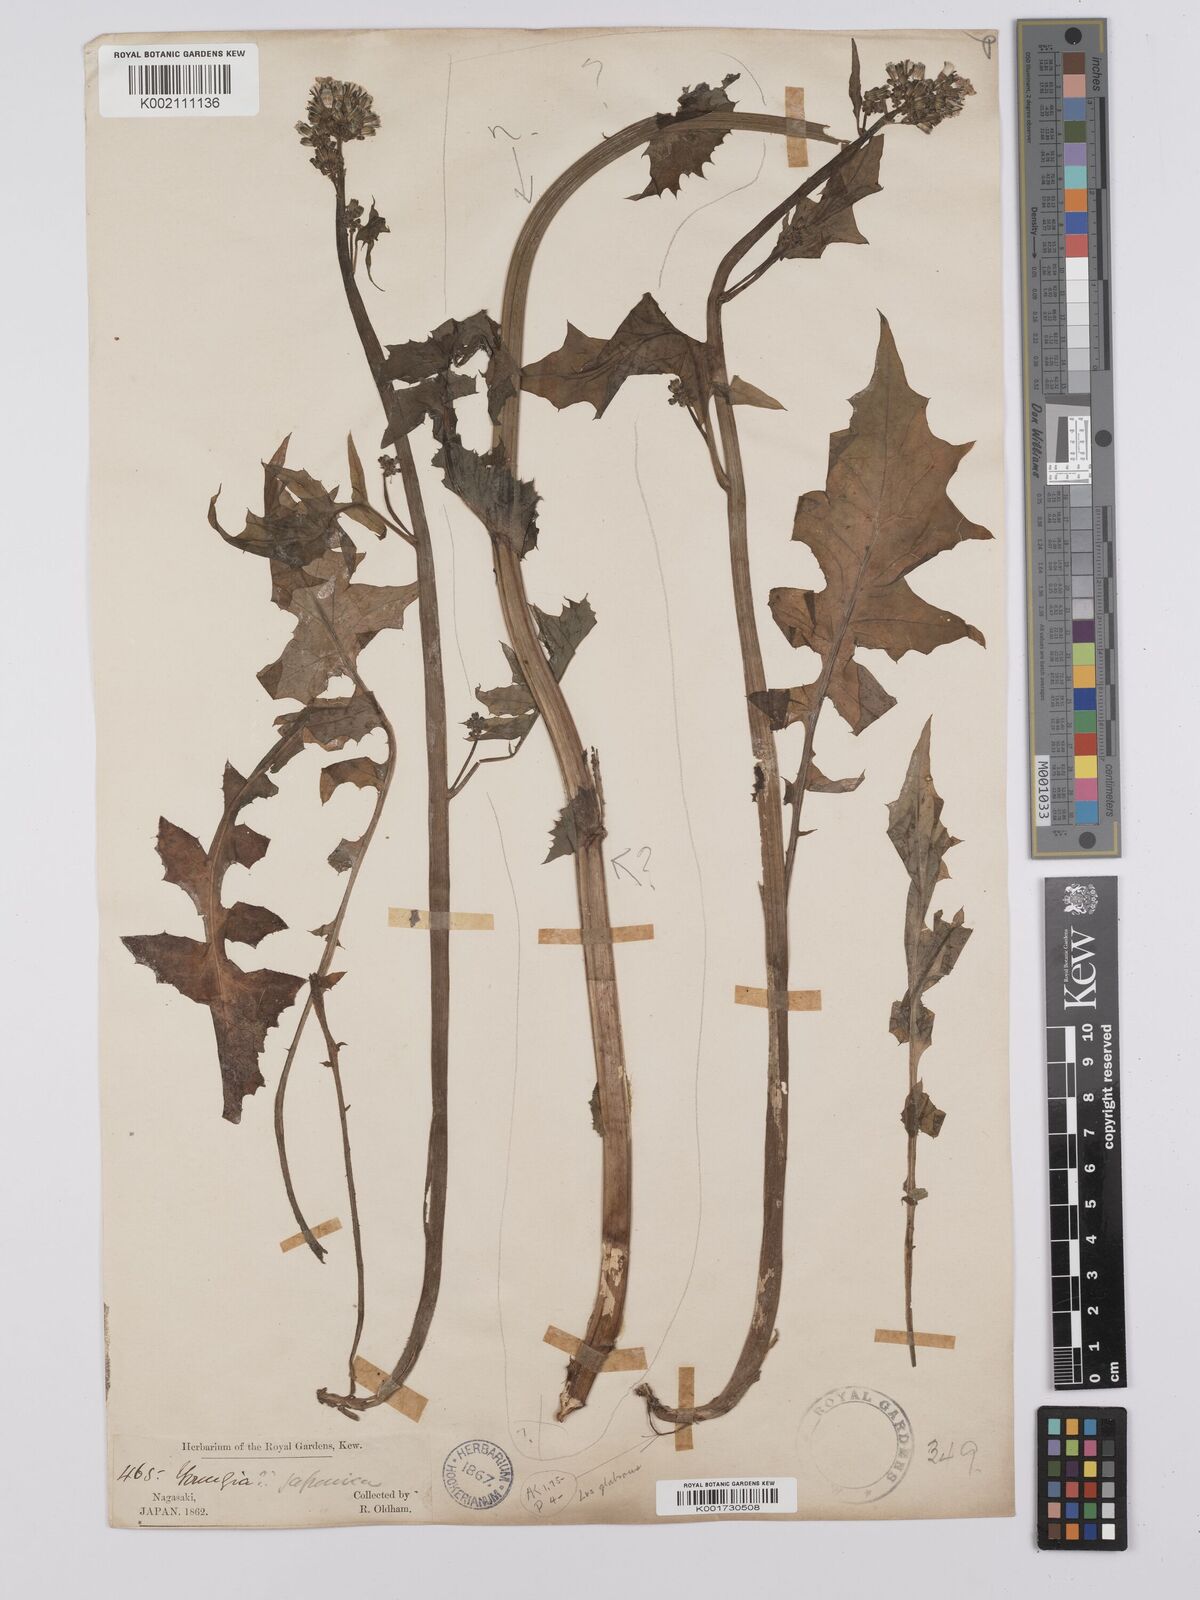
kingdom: Plantae
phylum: Tracheophyta
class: Magnoliopsida
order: Asterales
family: Asteraceae
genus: Youngia
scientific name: Youngia japonica
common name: Oriental false hawksbeard
